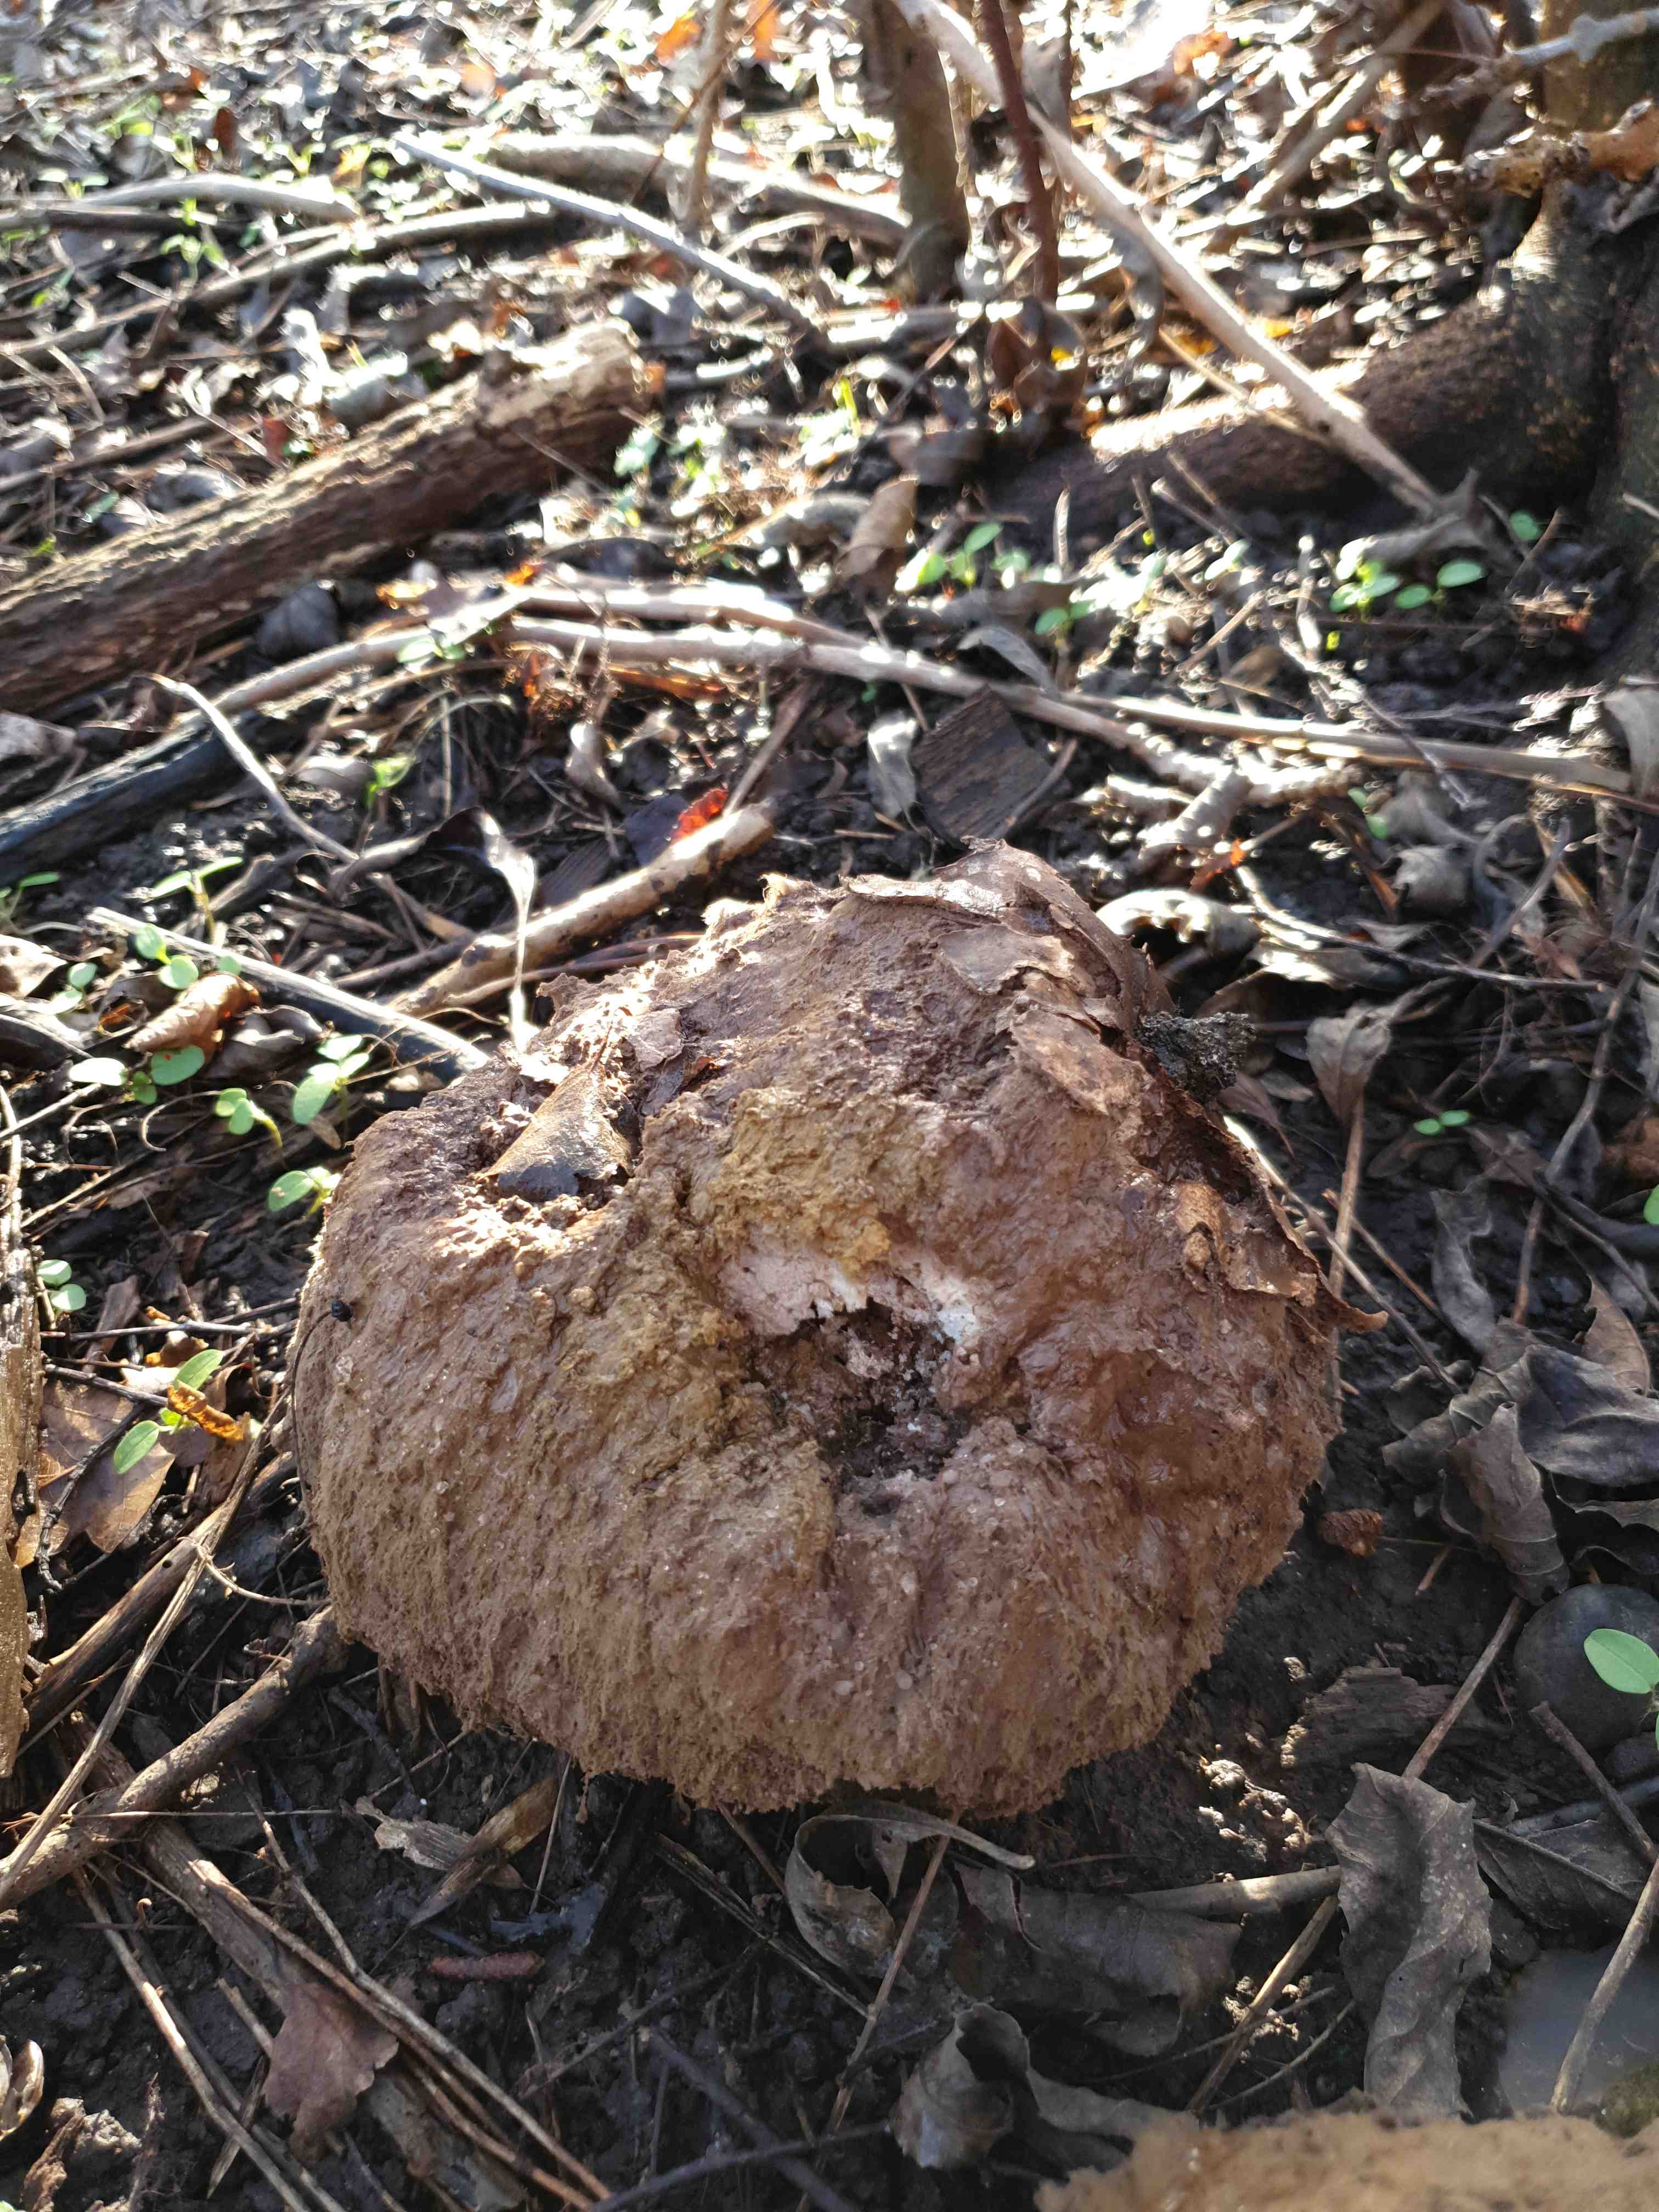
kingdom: Fungi
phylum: Basidiomycota
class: Agaricomycetes
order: Agaricales
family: Lycoperdaceae
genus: Calvatia
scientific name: Calvatia gigantea
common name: kæmpestøvbold
